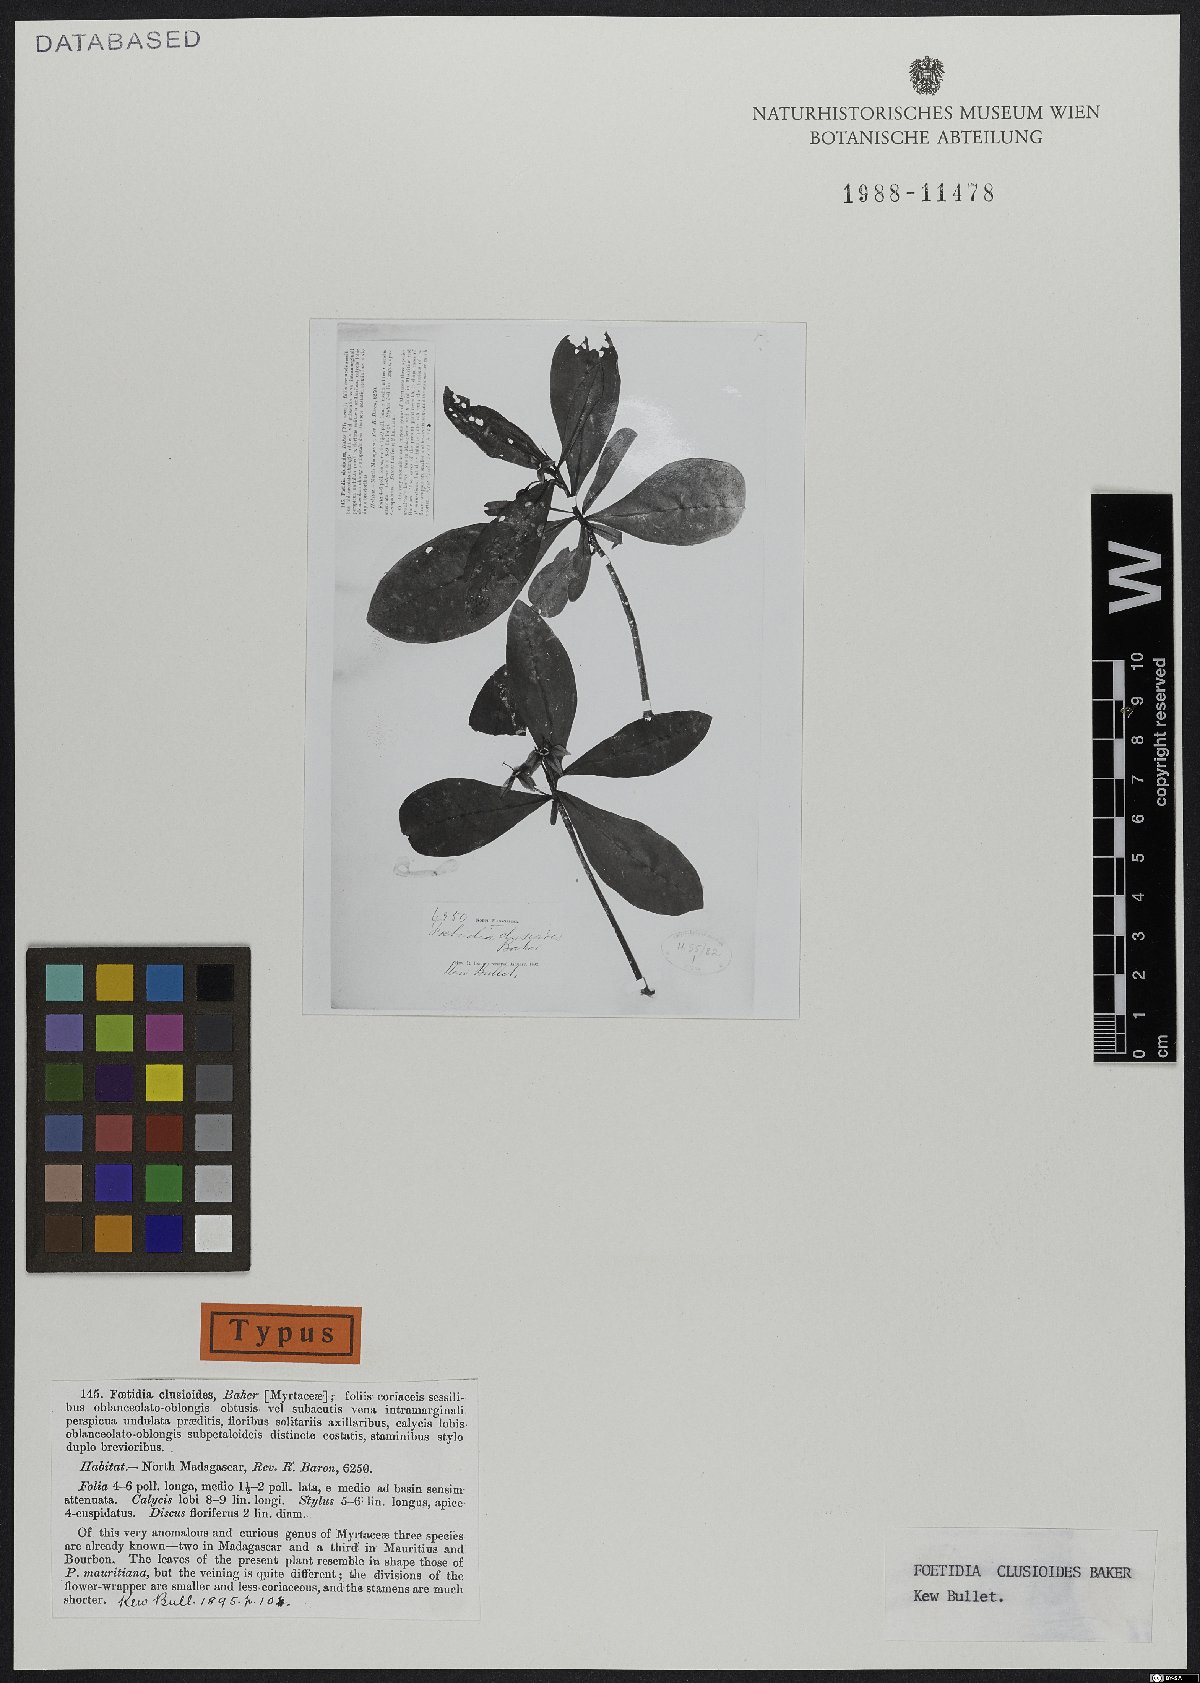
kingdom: Plantae
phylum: Tracheophyta
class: Magnoliopsida
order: Ericales
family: Lecythidaceae
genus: Foetidia
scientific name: Foetidia clusioides
